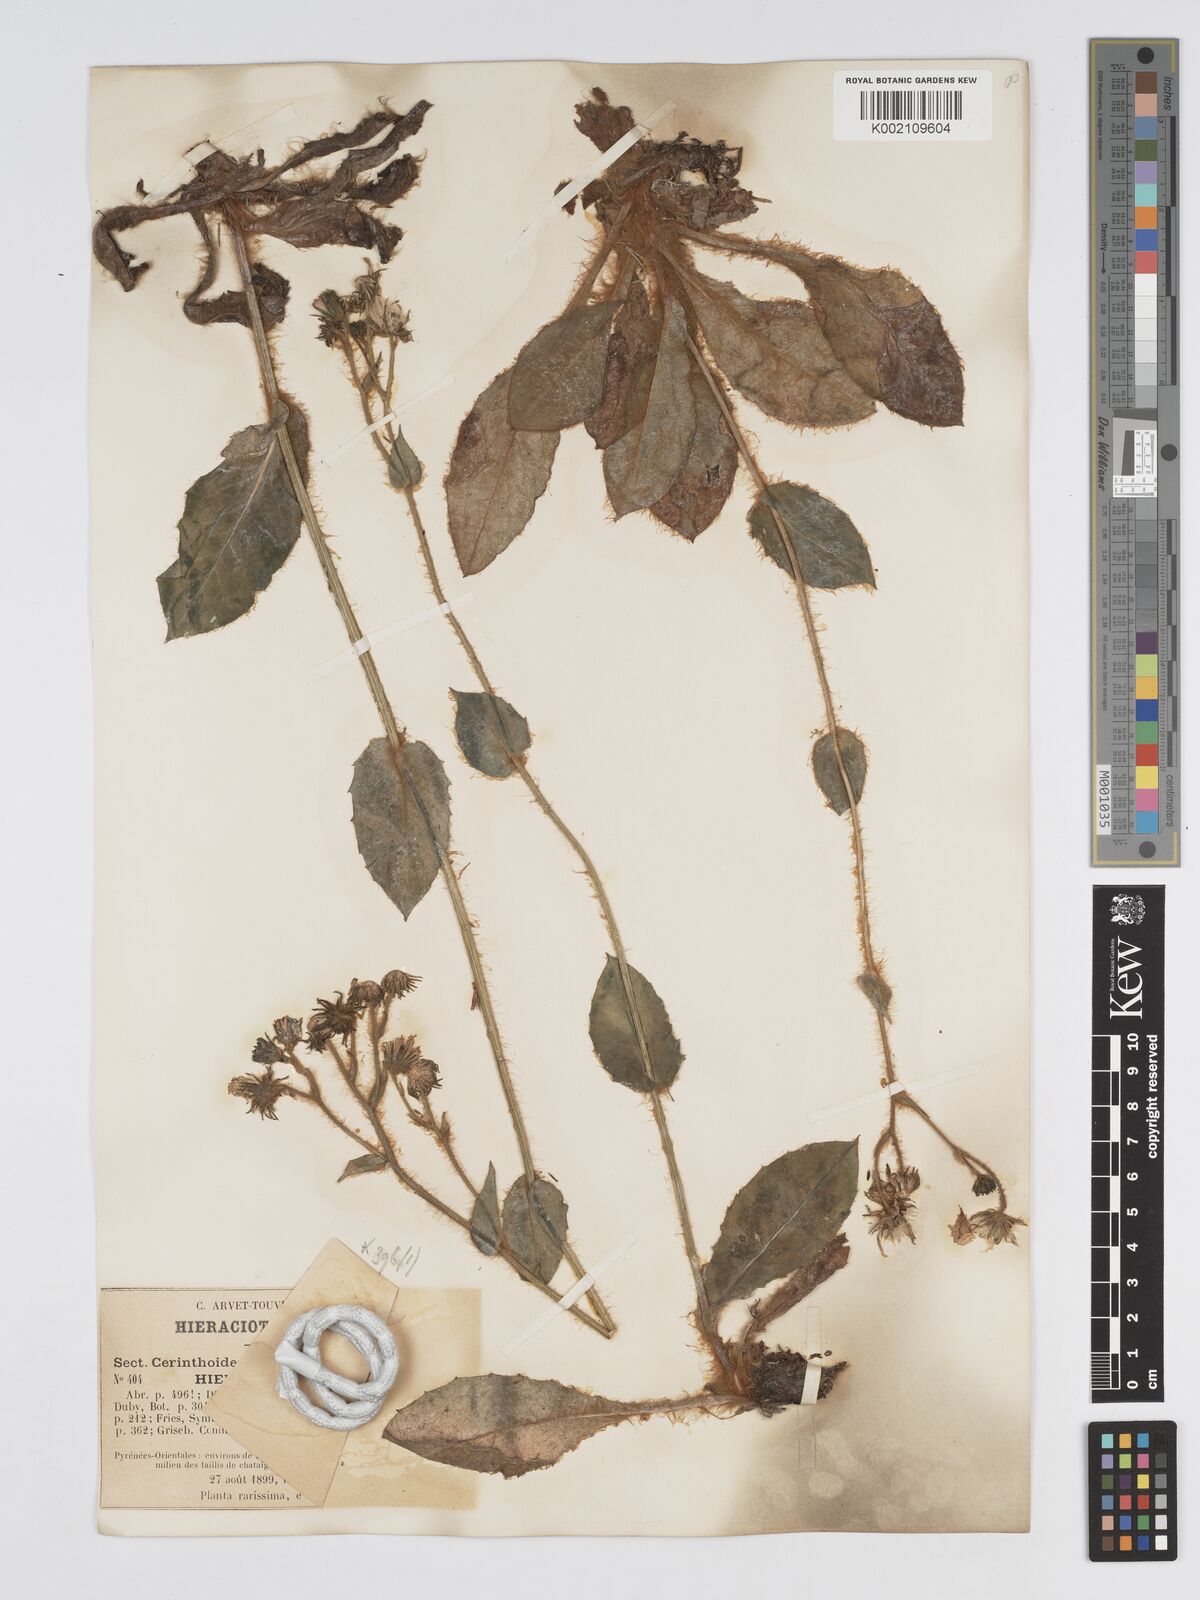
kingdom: Plantae
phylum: Tracheophyta
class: Magnoliopsida
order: Asterales
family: Asteraceae
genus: Hieracium
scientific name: Hieracium compositum
